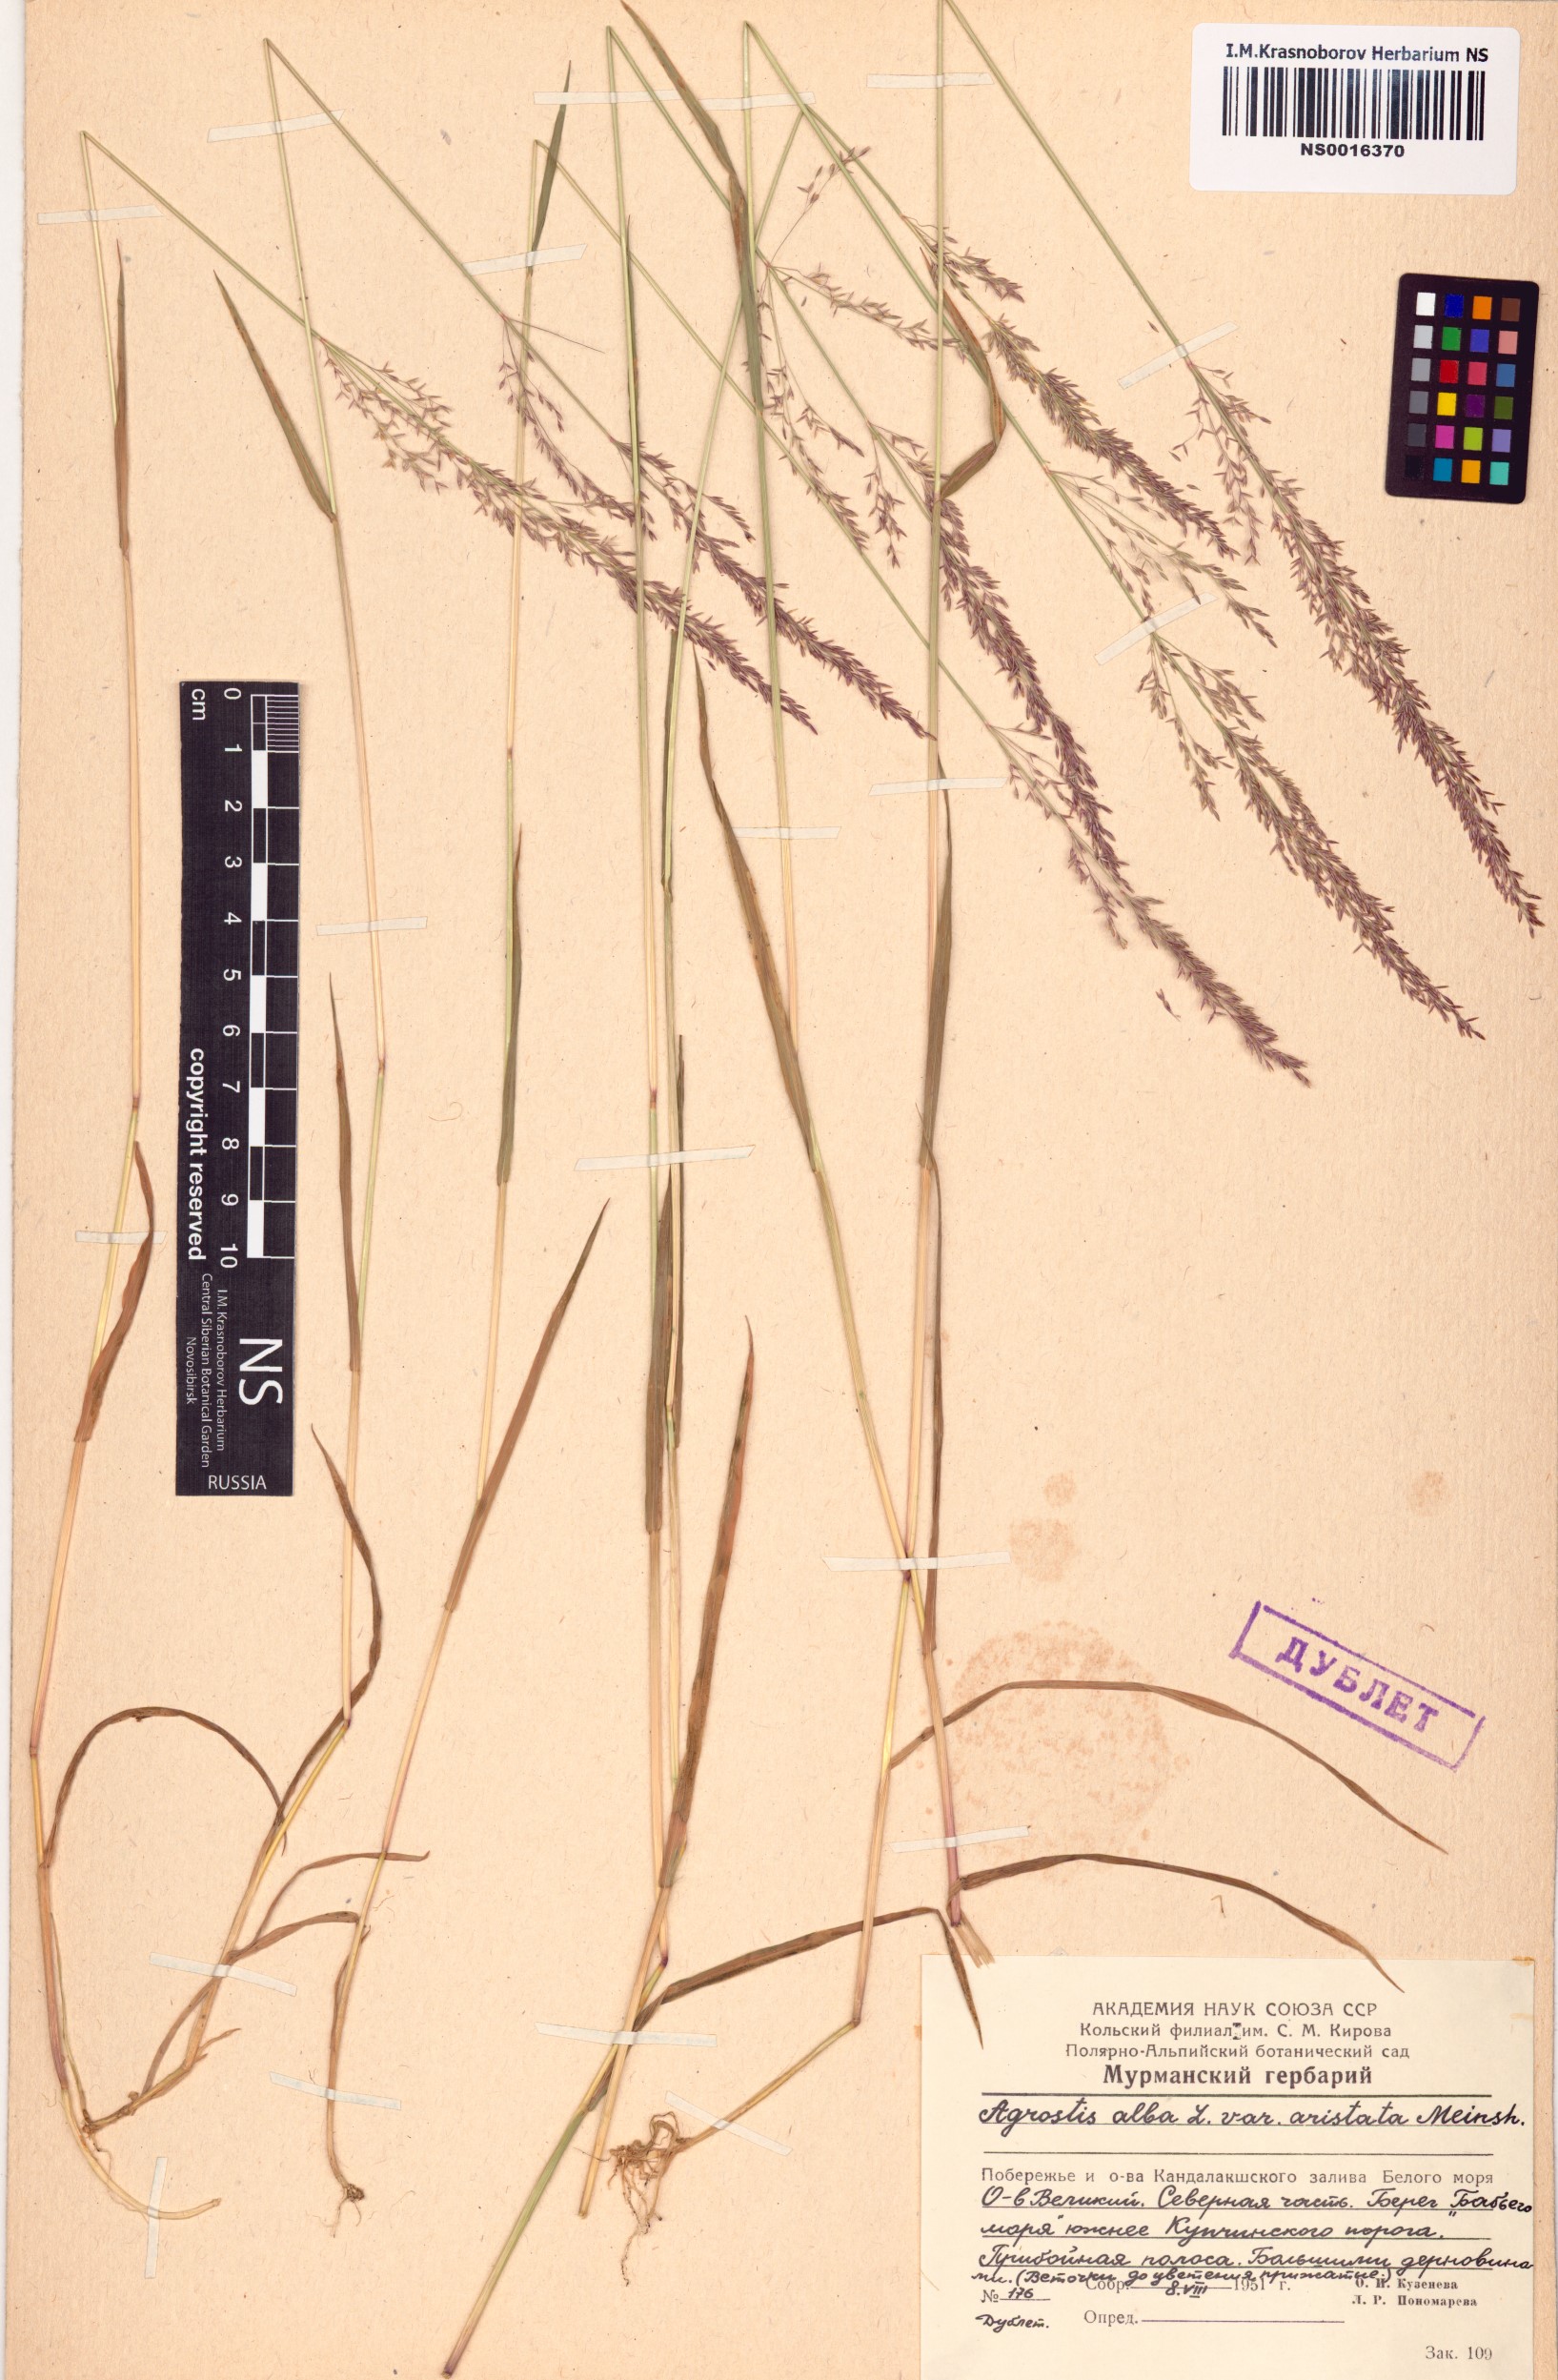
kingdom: Plantae
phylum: Tracheophyta
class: Liliopsida
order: Poales
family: Poaceae
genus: Agrostis
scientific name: Agrostis
